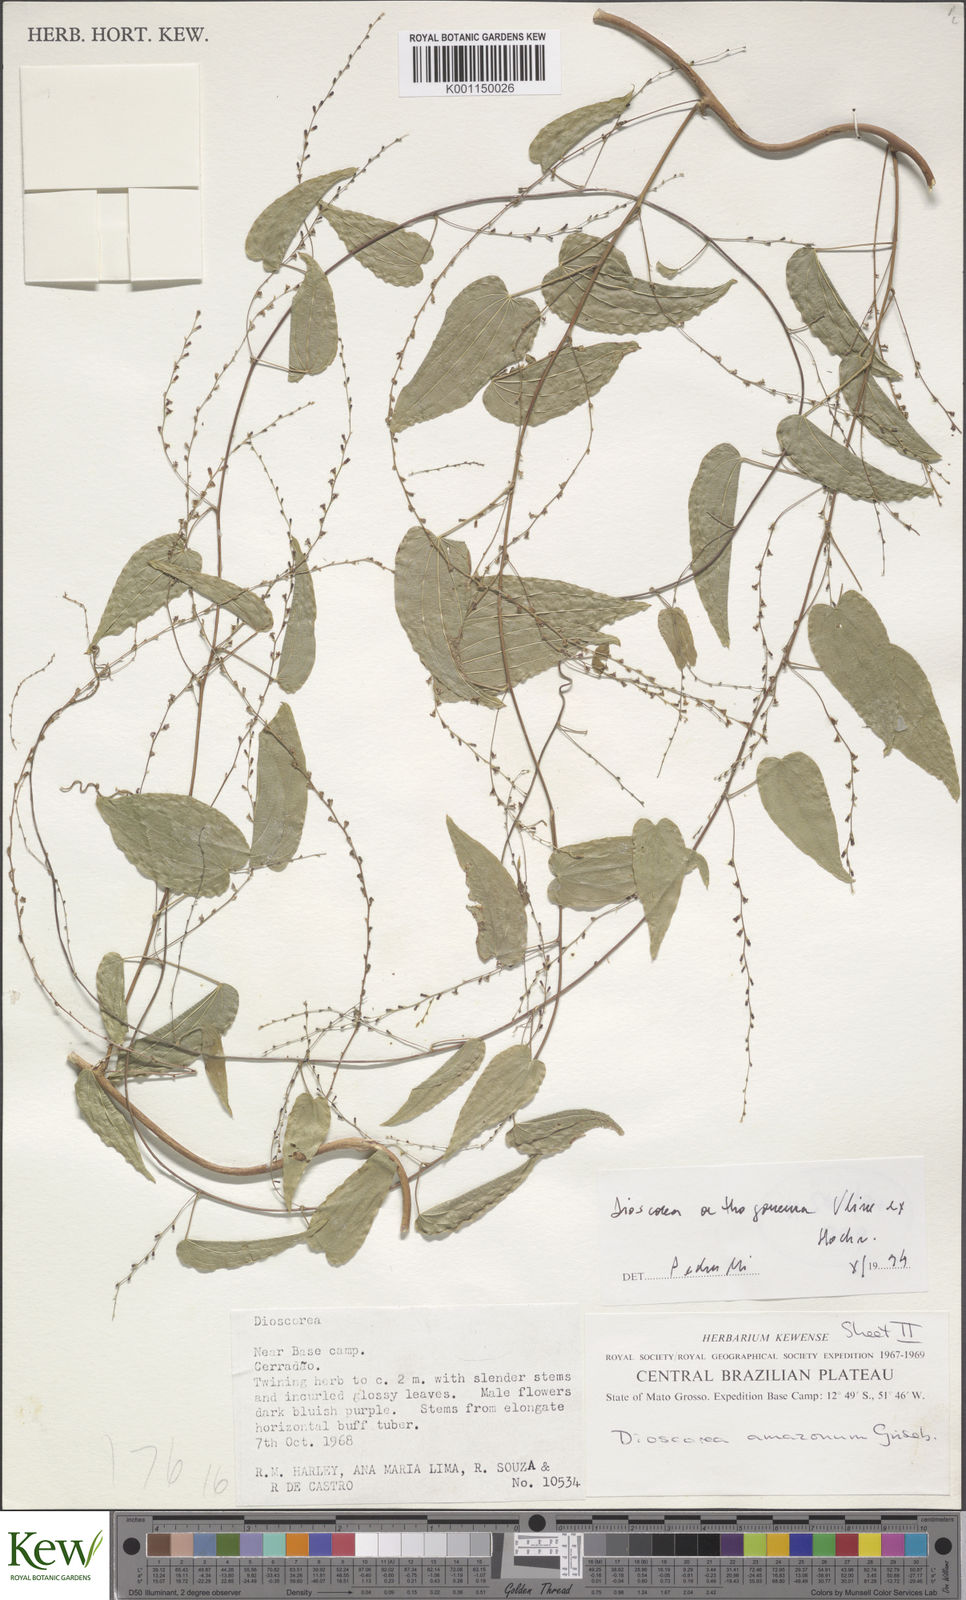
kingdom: Plantae
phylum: Tracheophyta
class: Liliopsida
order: Dioscoreales
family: Dioscoreaceae
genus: Dioscorea
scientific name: Dioscorea orthogoneura
